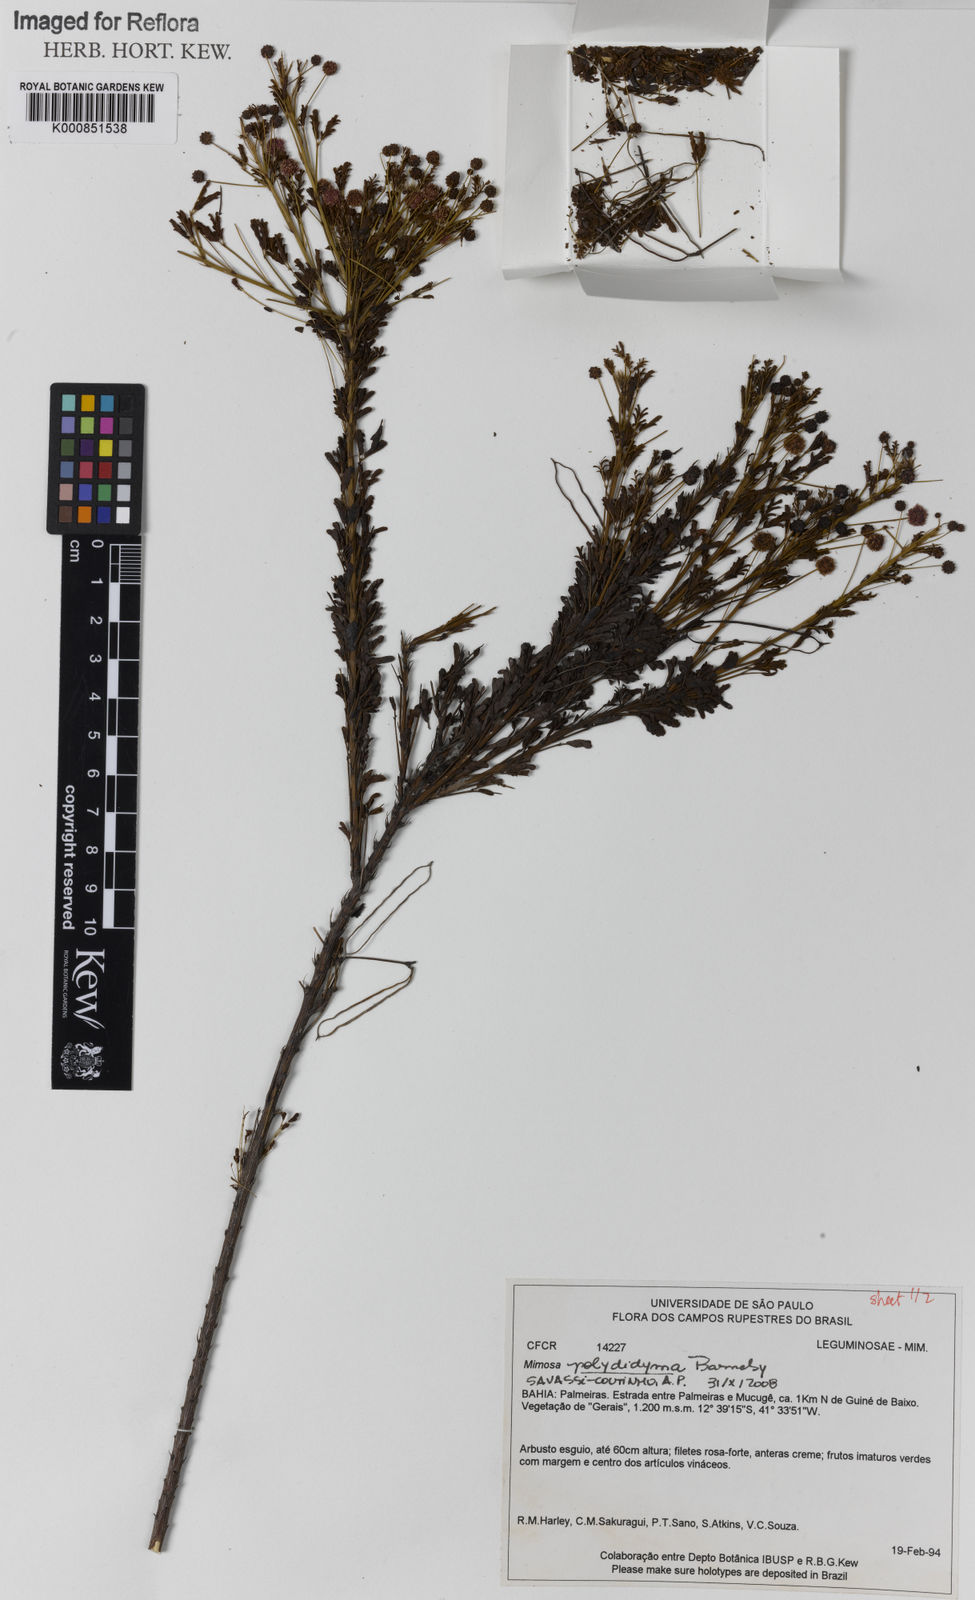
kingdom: Plantae
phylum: Tracheophyta
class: Magnoliopsida
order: Fabales
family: Fabaceae
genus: Mimosa
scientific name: Mimosa polydidyma
